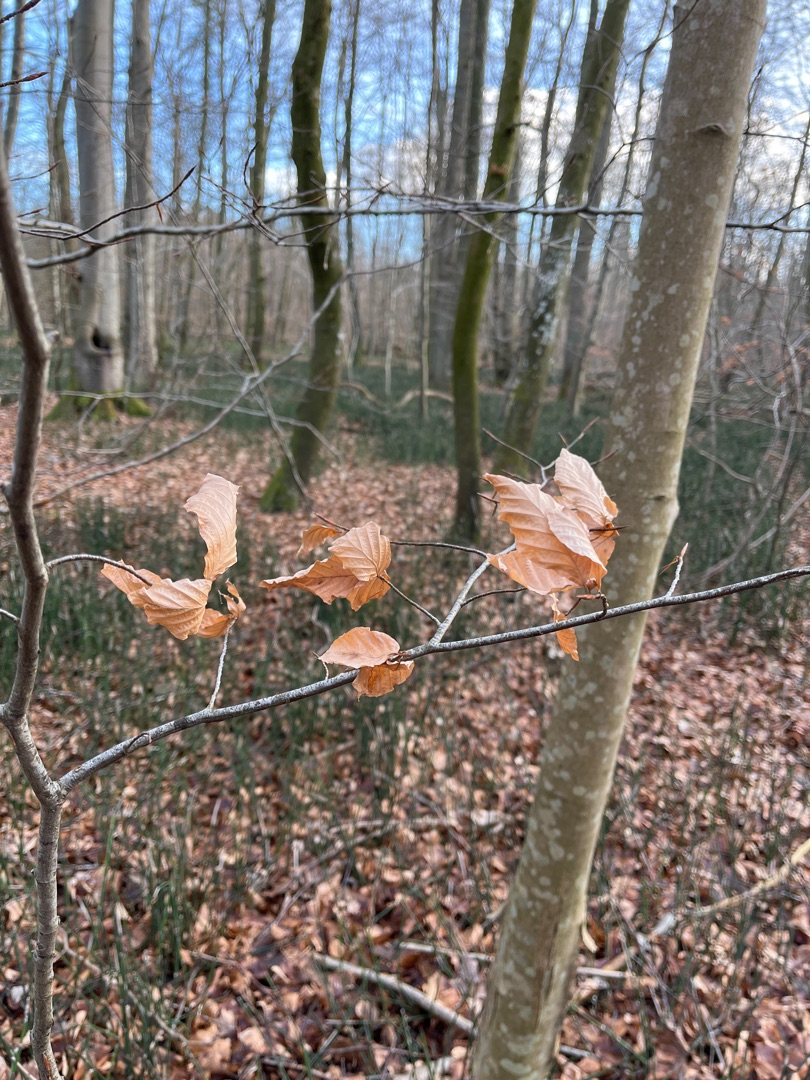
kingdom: Plantae
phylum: Tracheophyta
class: Magnoliopsida
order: Fagales
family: Fagaceae
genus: Fagus
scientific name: Fagus sylvatica
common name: Bøg
